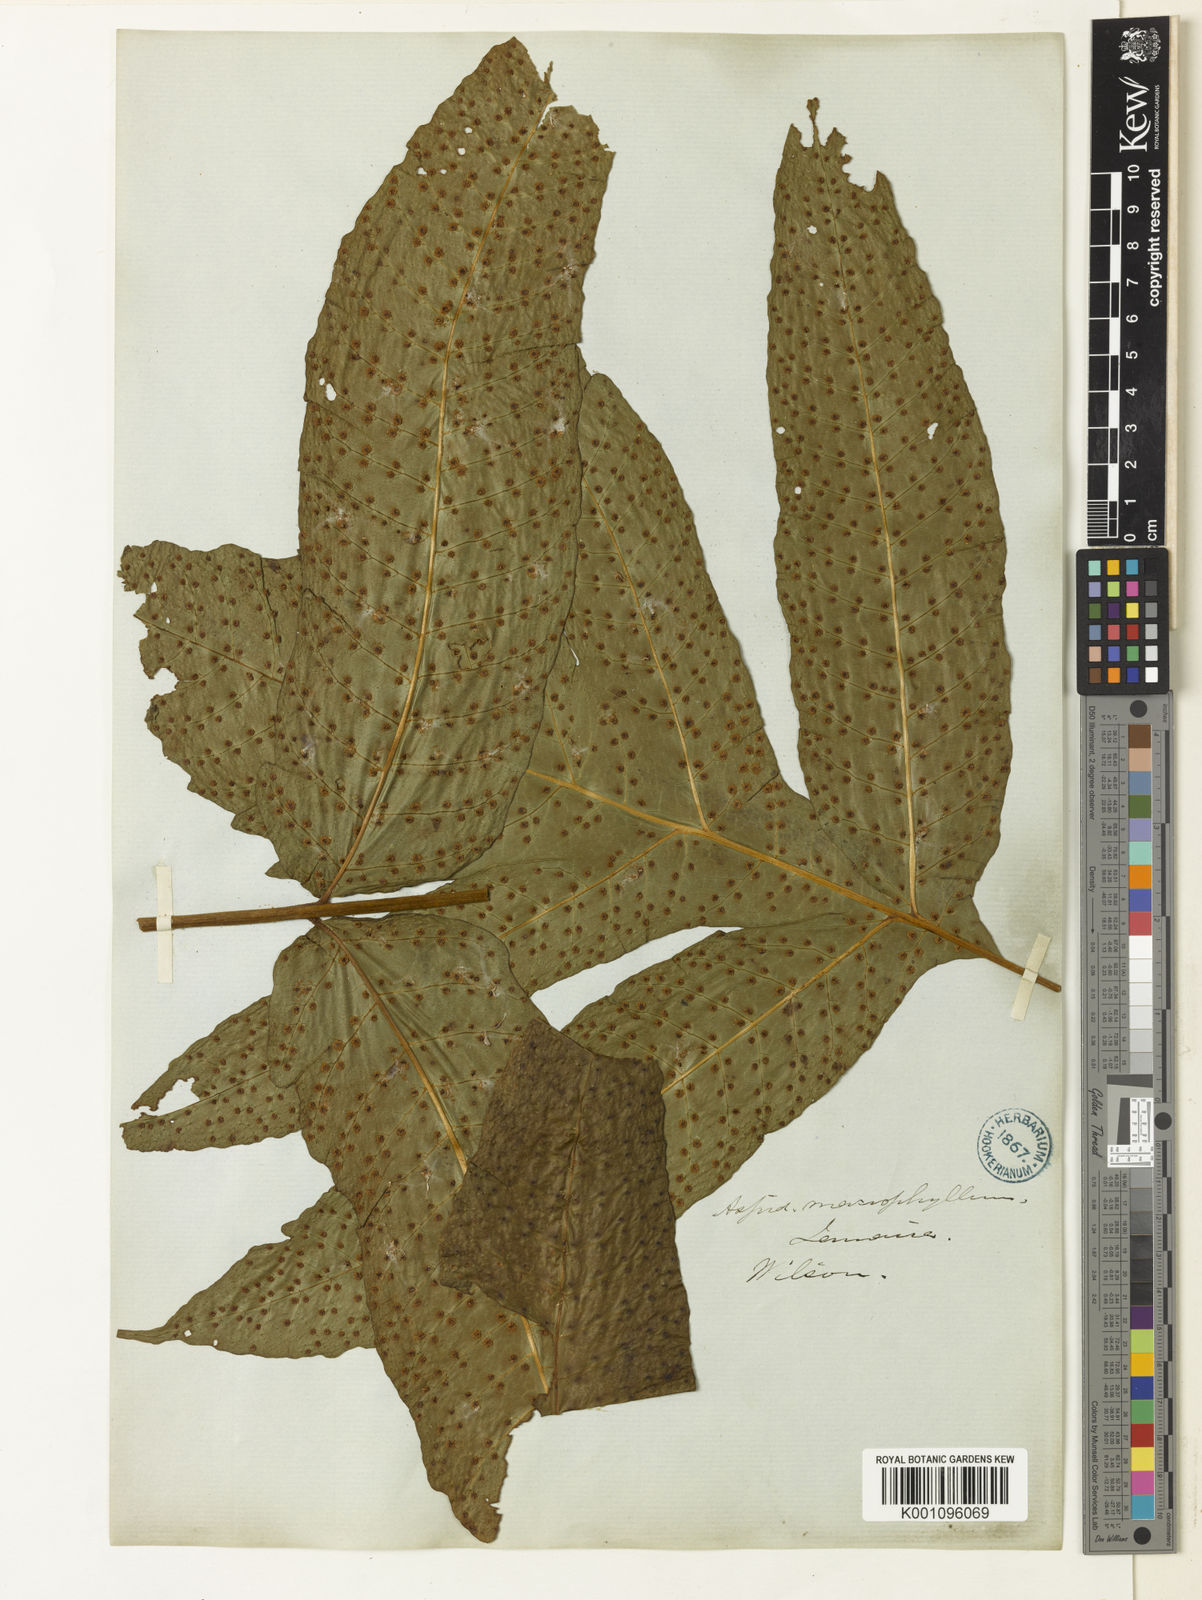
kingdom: Plantae
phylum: Tracheophyta
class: Polypodiopsida
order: Polypodiales
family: Tectariaceae
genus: Tectaria
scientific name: Tectaria incisa
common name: Incised halberd fern
